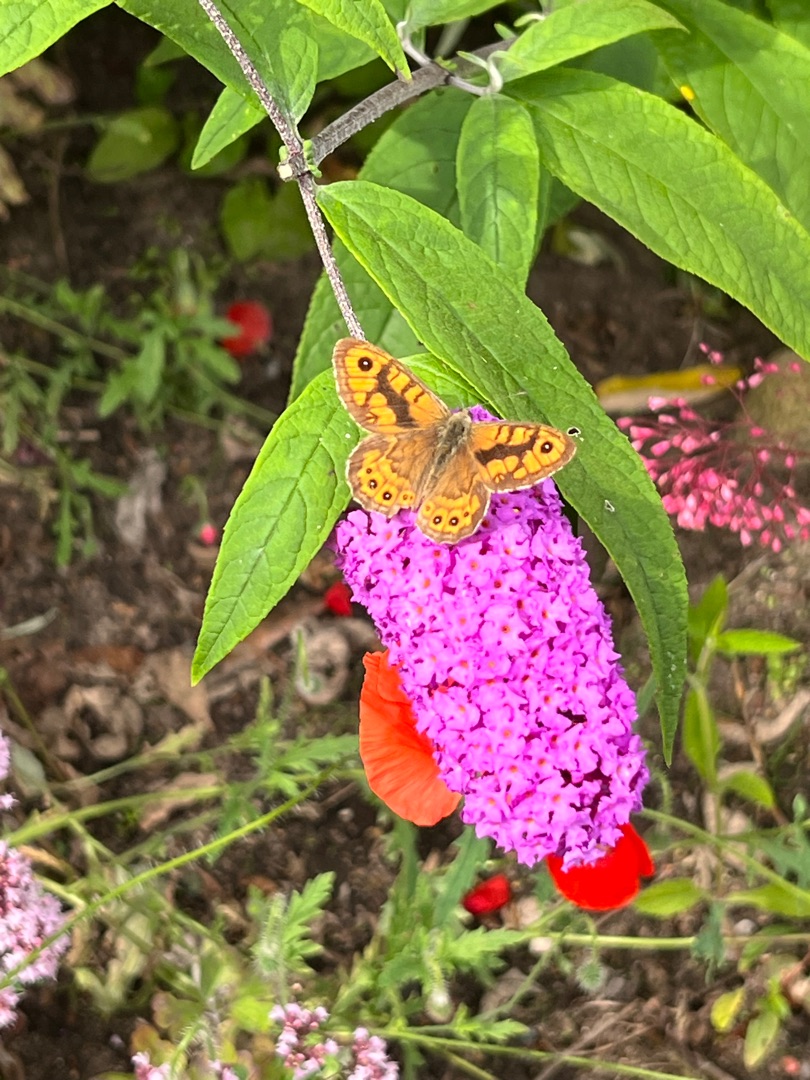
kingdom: Animalia
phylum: Arthropoda
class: Insecta
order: Lepidoptera
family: Nymphalidae
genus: Pararge
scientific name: Pararge Lasiommata megera
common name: Vejrandøje
